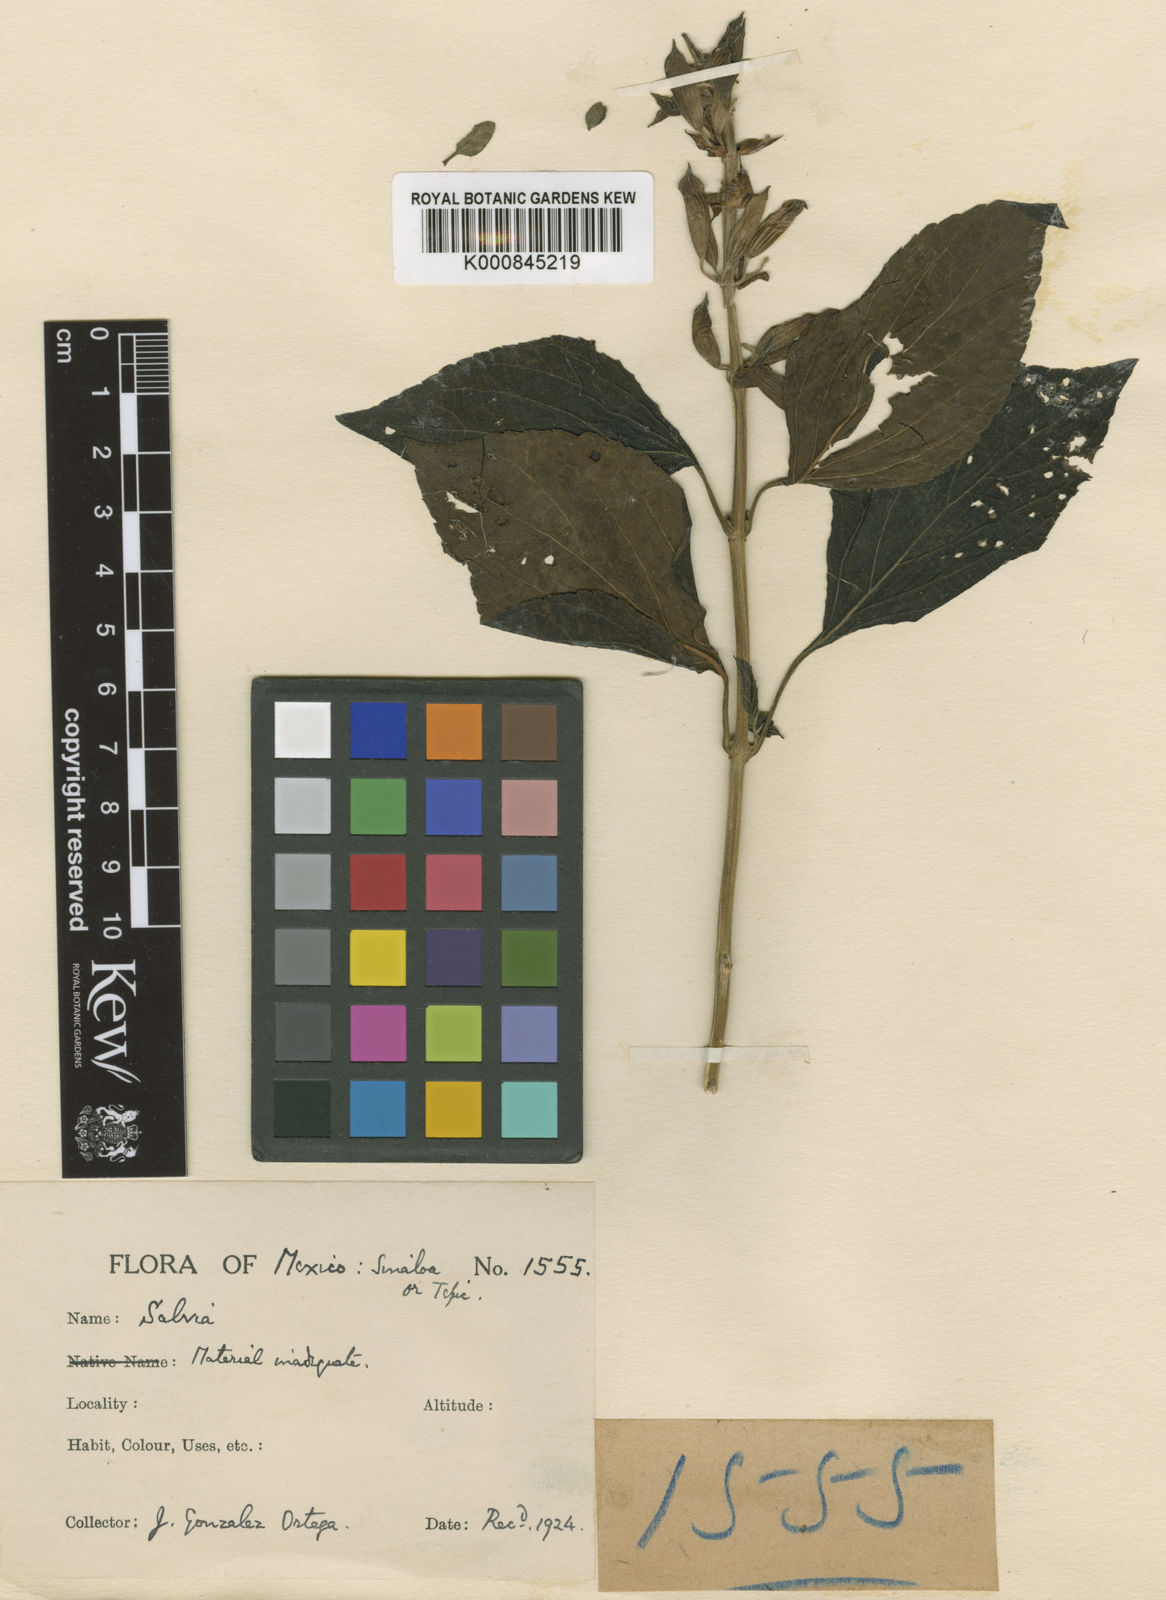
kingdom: Plantae
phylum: Tracheophyta
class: Magnoliopsida
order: Lamiales
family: Lamiaceae
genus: Salvia
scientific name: Salvia
